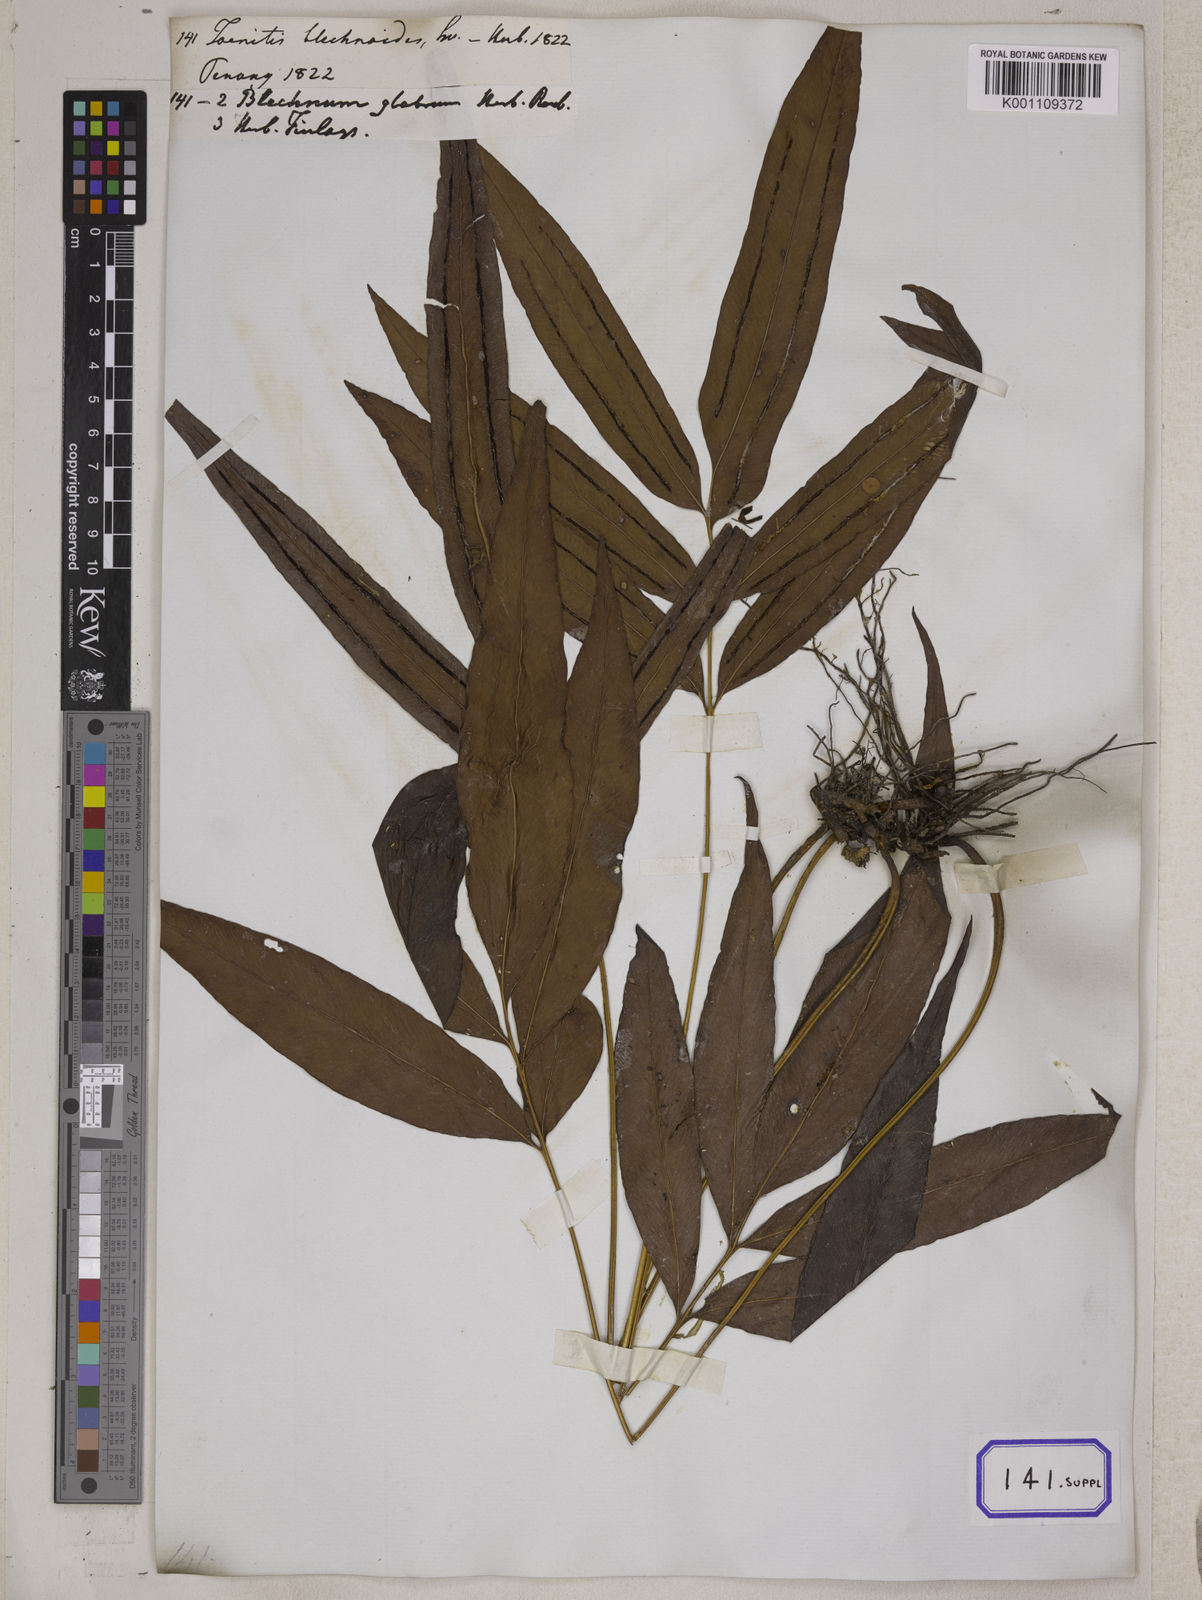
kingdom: Plantae
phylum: Tracheophyta
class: Polypodiopsida
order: Polypodiales
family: Pteridaceae
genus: Taenitis
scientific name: Taenitis blechnoides
